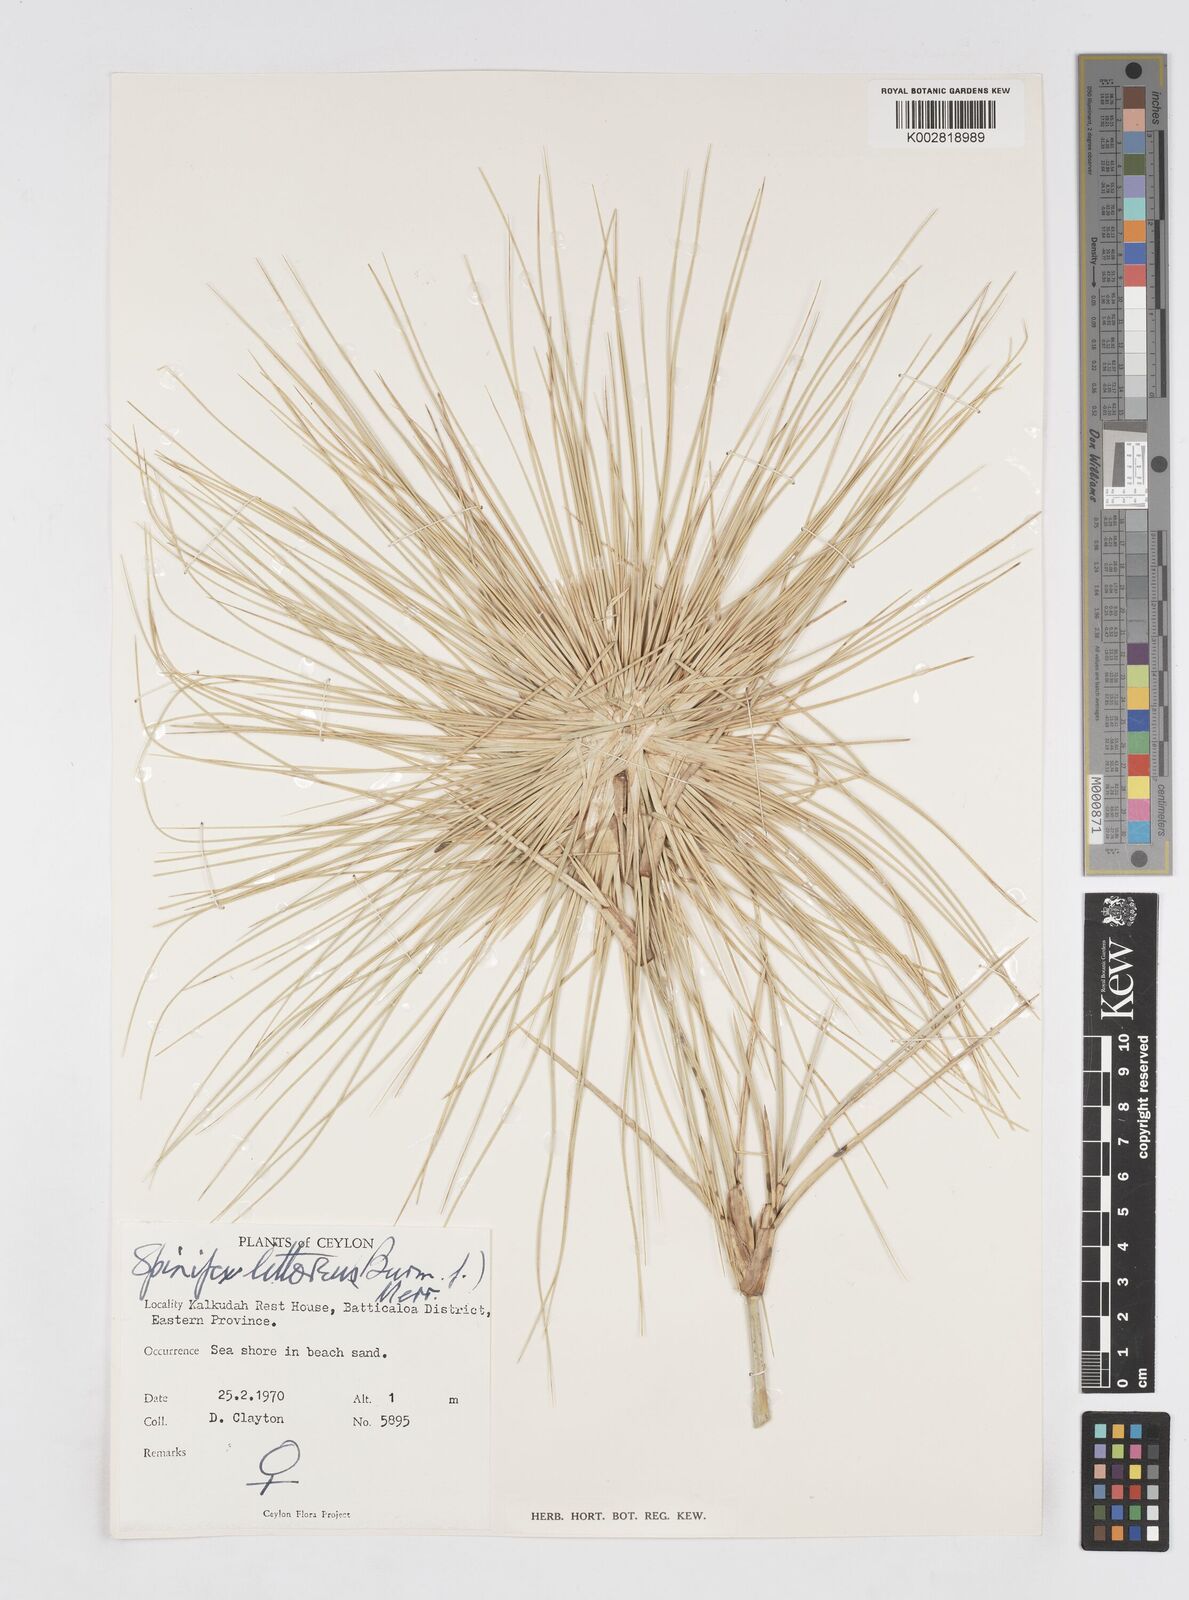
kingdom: Plantae
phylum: Tracheophyta
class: Liliopsida
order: Poales
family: Poaceae
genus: Spinifex
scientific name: Spinifex littoreus
